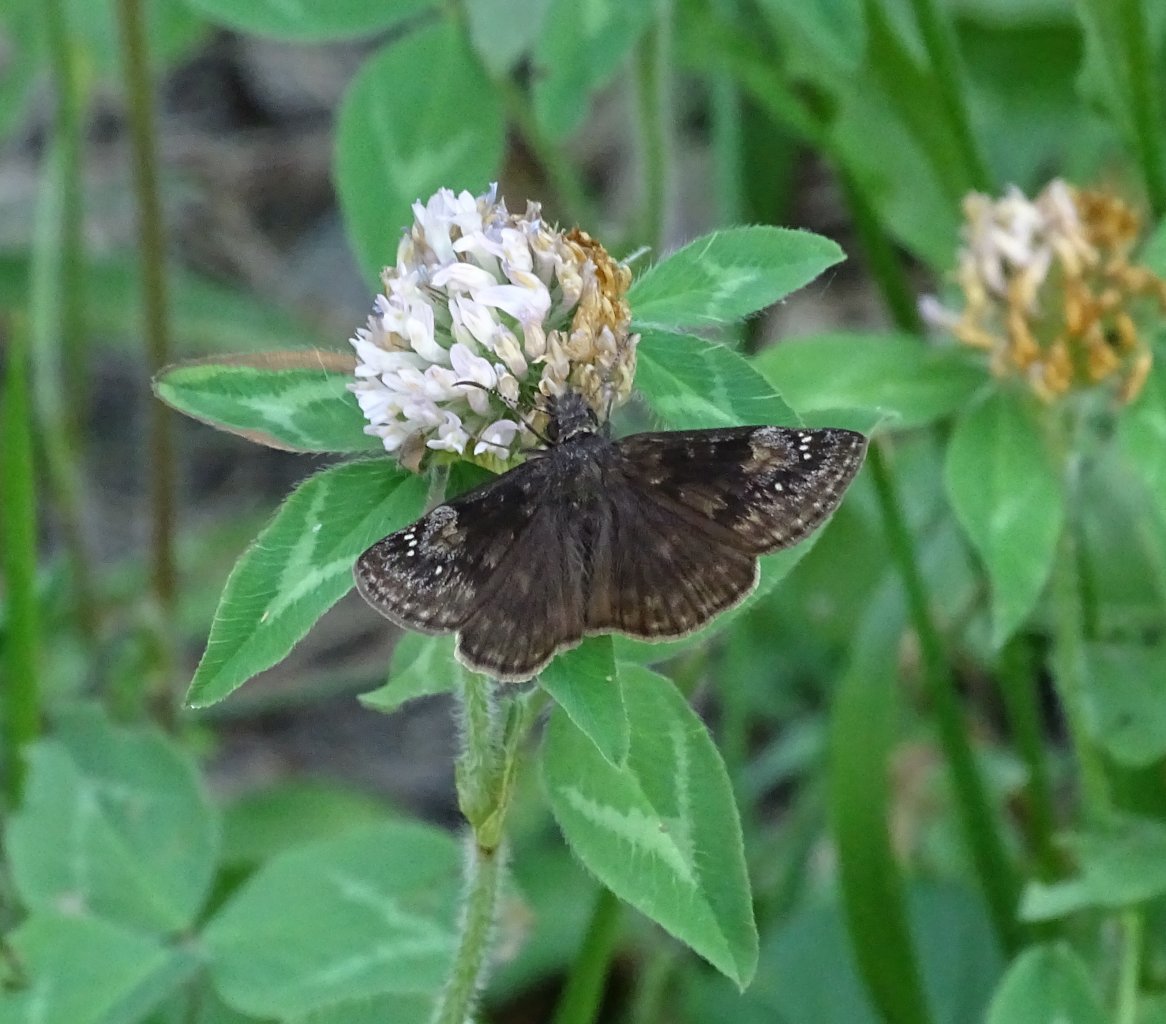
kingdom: Animalia
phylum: Arthropoda
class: Insecta
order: Lepidoptera
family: Hesperiidae
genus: Gesta
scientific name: Gesta
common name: Wild Indigo Duskywing
